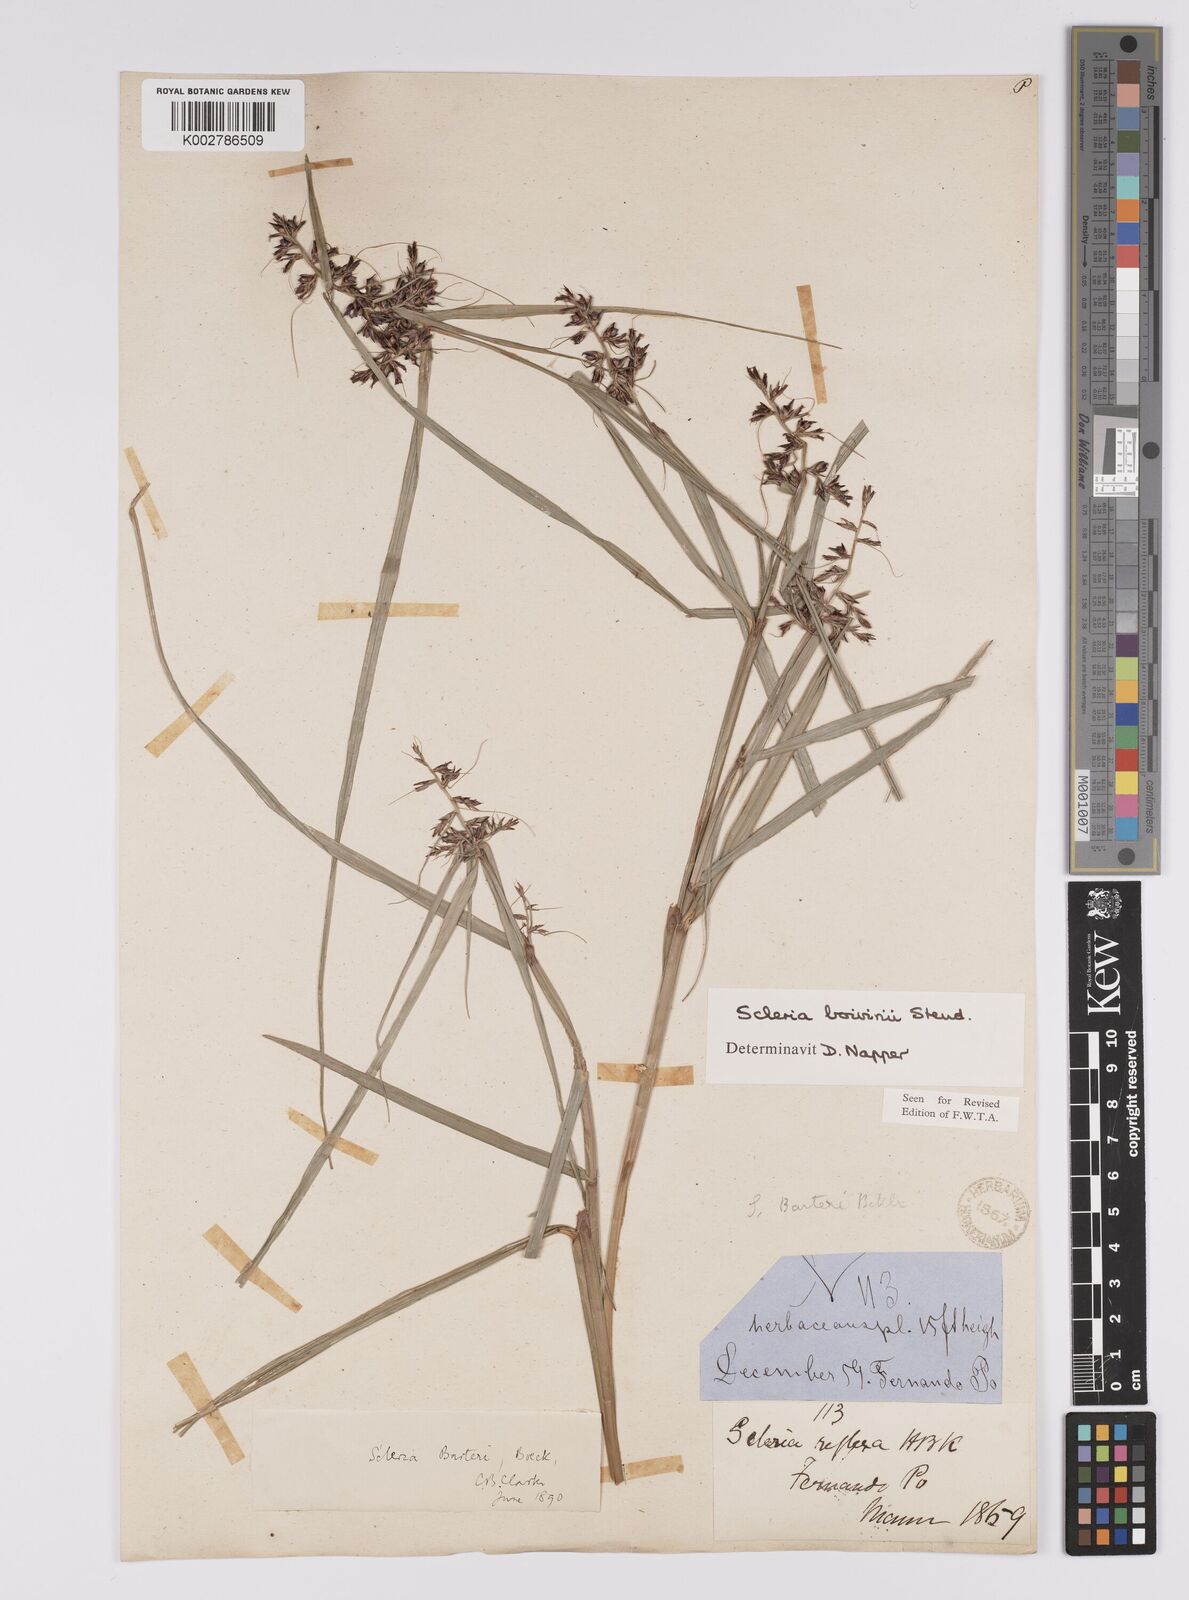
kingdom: Plantae
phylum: Tracheophyta
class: Liliopsida
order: Poales
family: Cyperaceae
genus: Scleria
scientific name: Scleria boivinii
